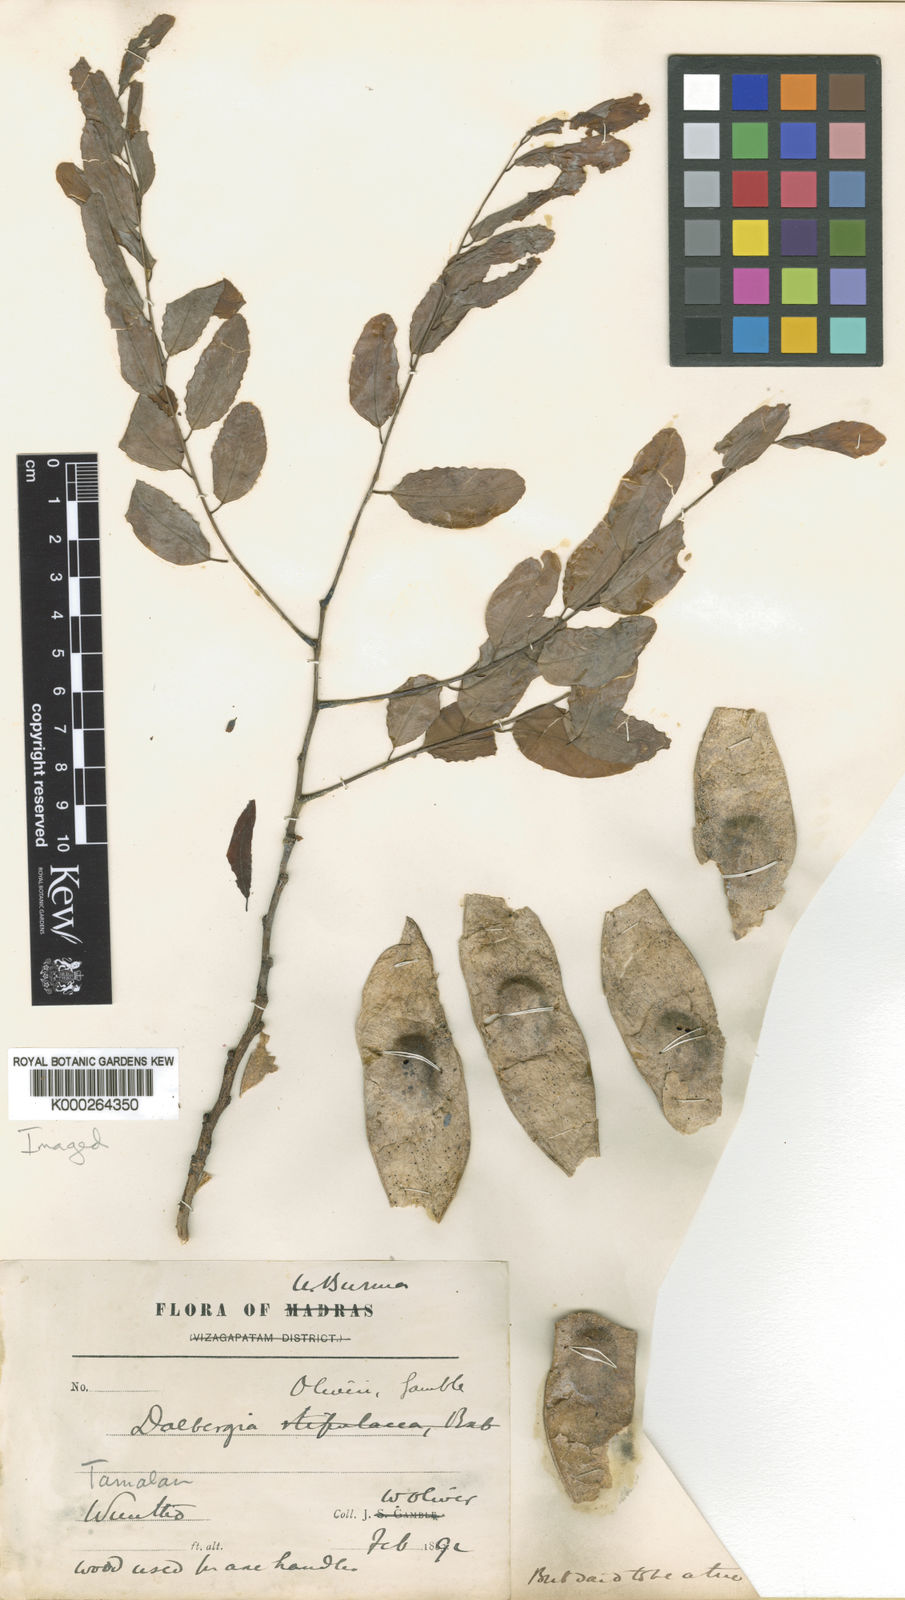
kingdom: Plantae
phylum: Tracheophyta
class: Magnoliopsida
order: Fabales
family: Fabaceae
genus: Dalbergia
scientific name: Dalbergia oliveri
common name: Burmese rosewood
